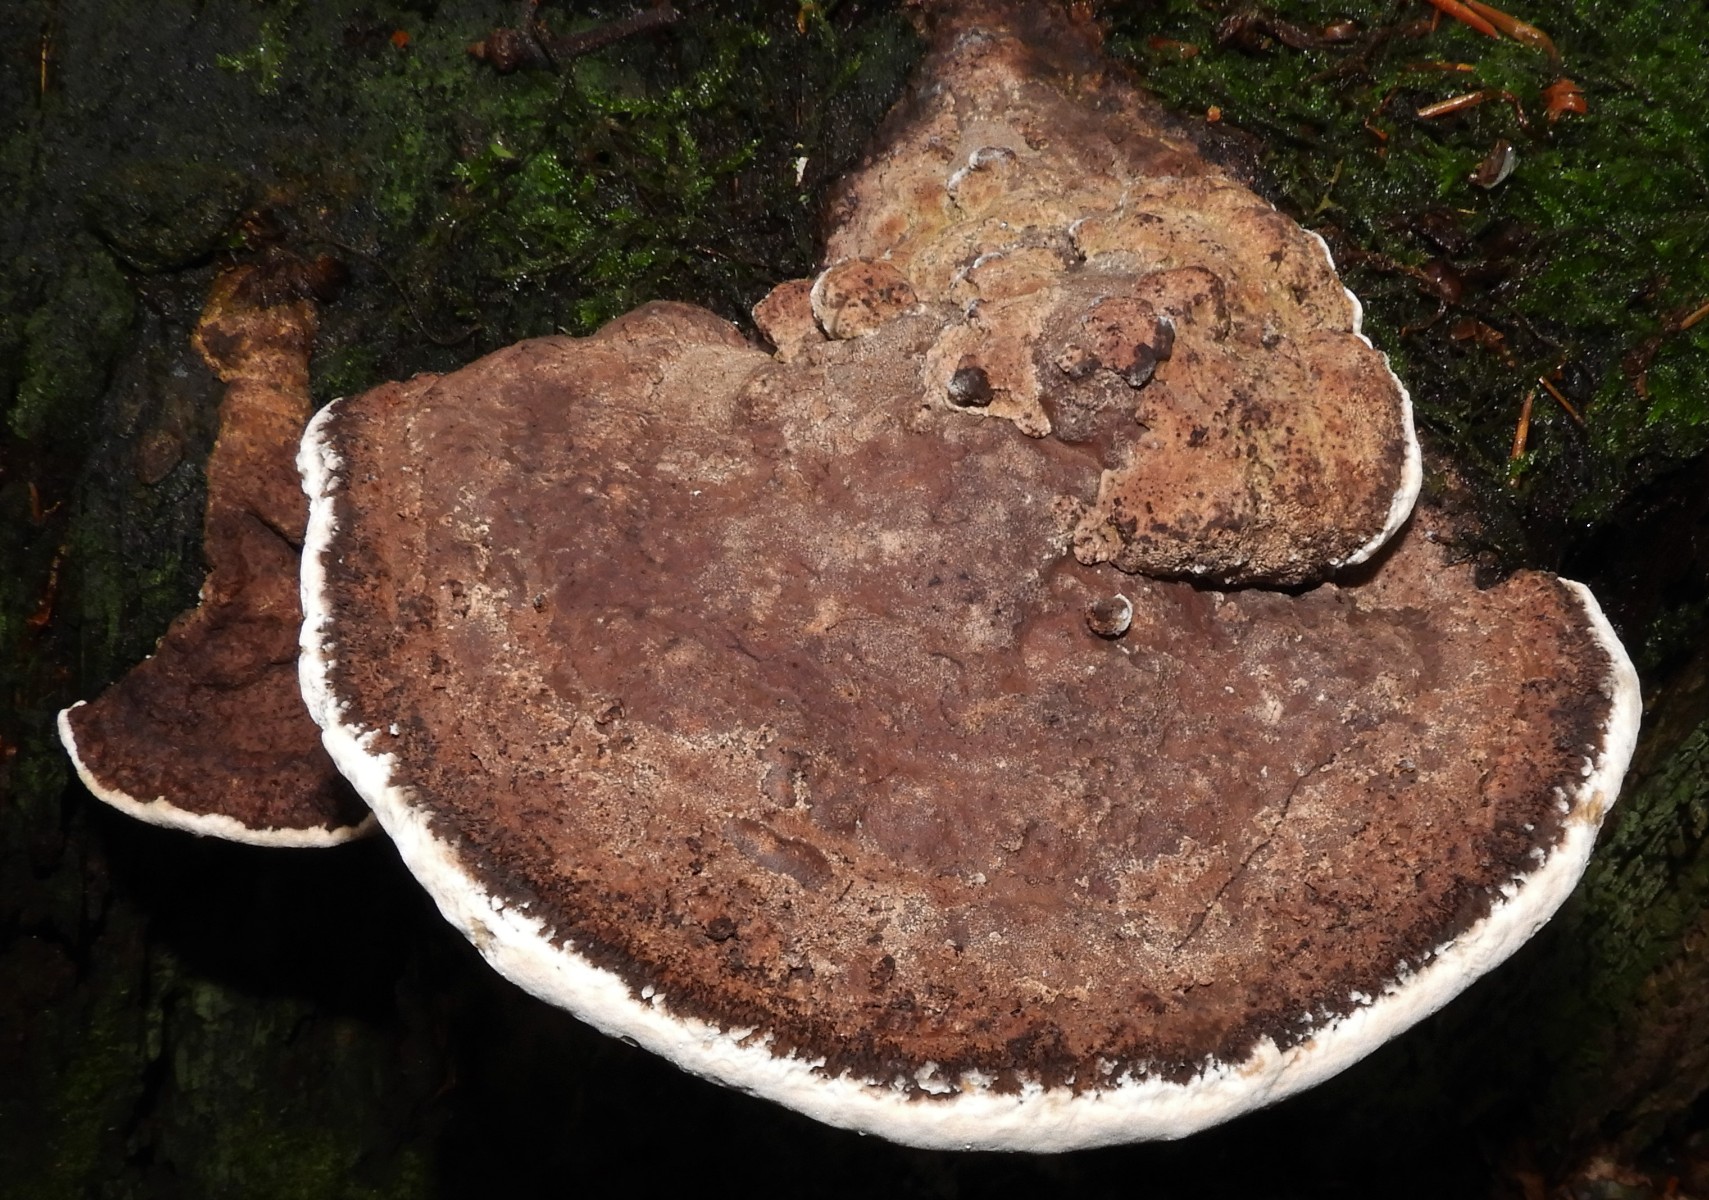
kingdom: Fungi
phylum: Basidiomycota
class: Agaricomycetes
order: Polyporales
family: Fomitopsidaceae
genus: Daedalea
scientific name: Daedalea quercina
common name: ege-labyrintsvamp
